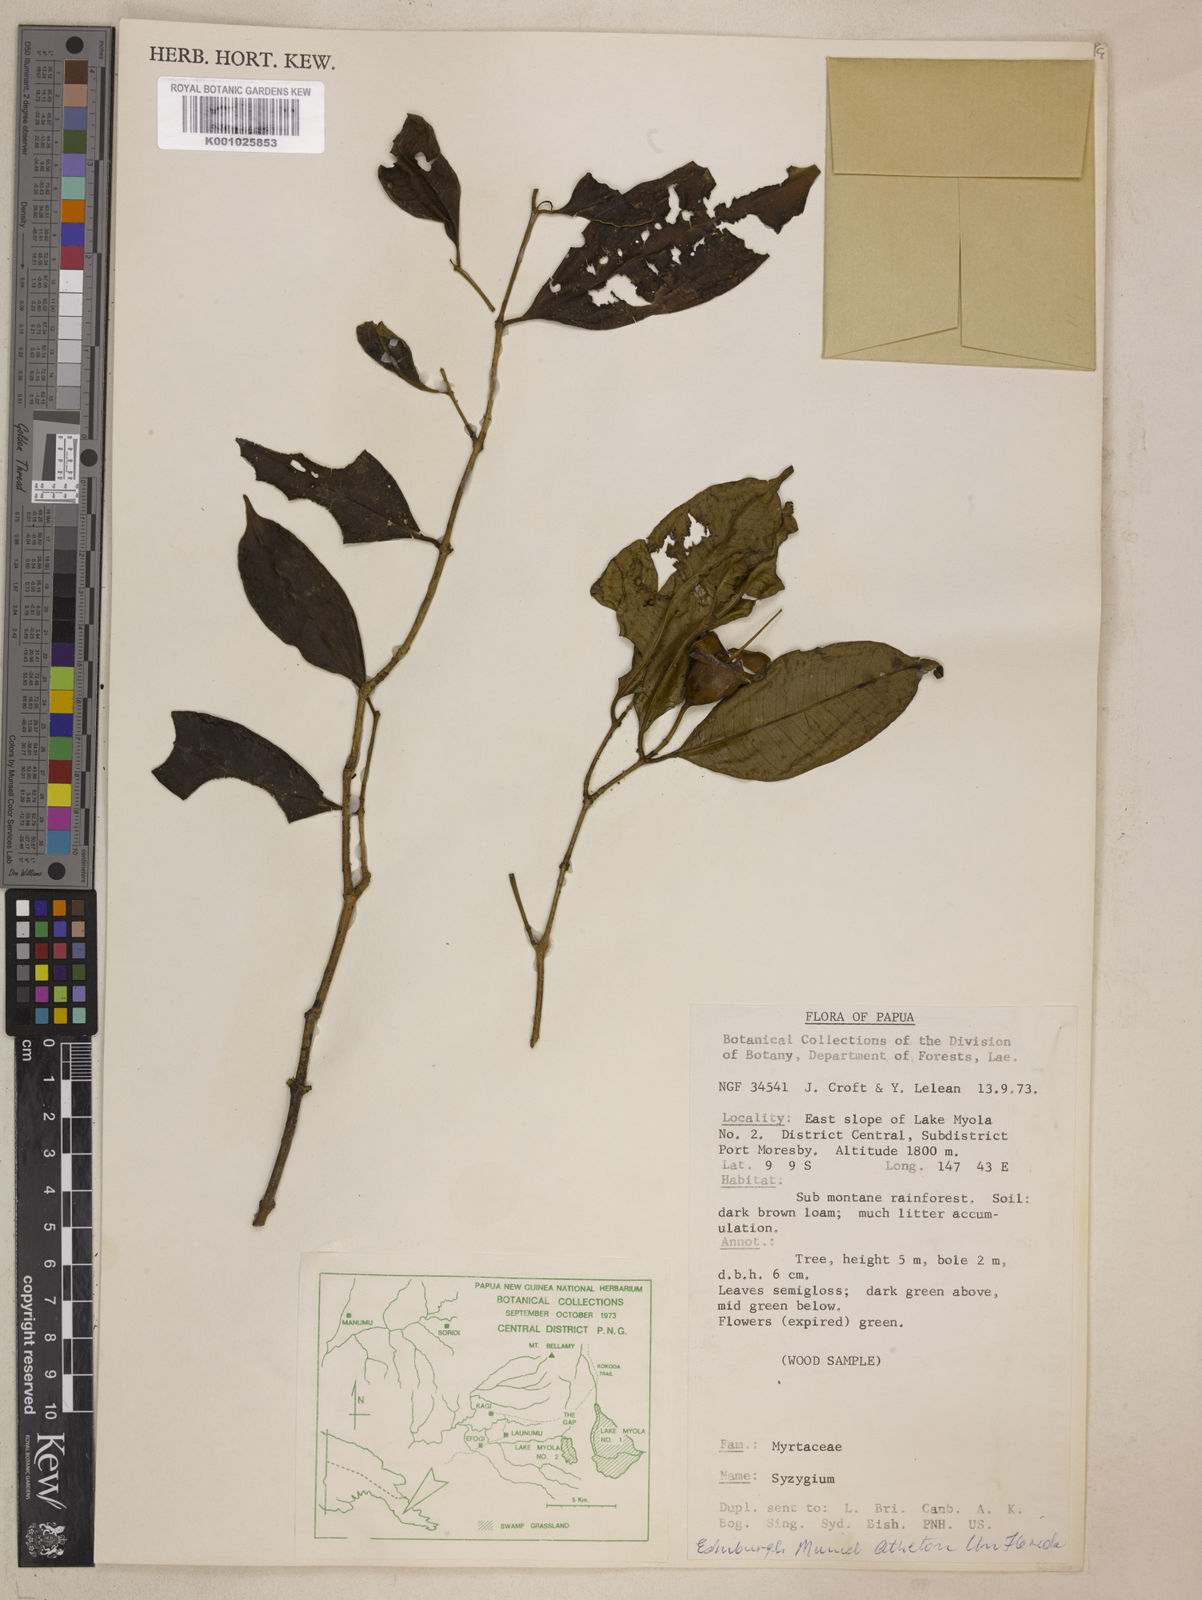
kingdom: Plantae
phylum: Tracheophyta
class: Magnoliopsida
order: Myrtales
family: Myrtaceae
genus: Syzygium
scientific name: Syzygium erythropetalum
